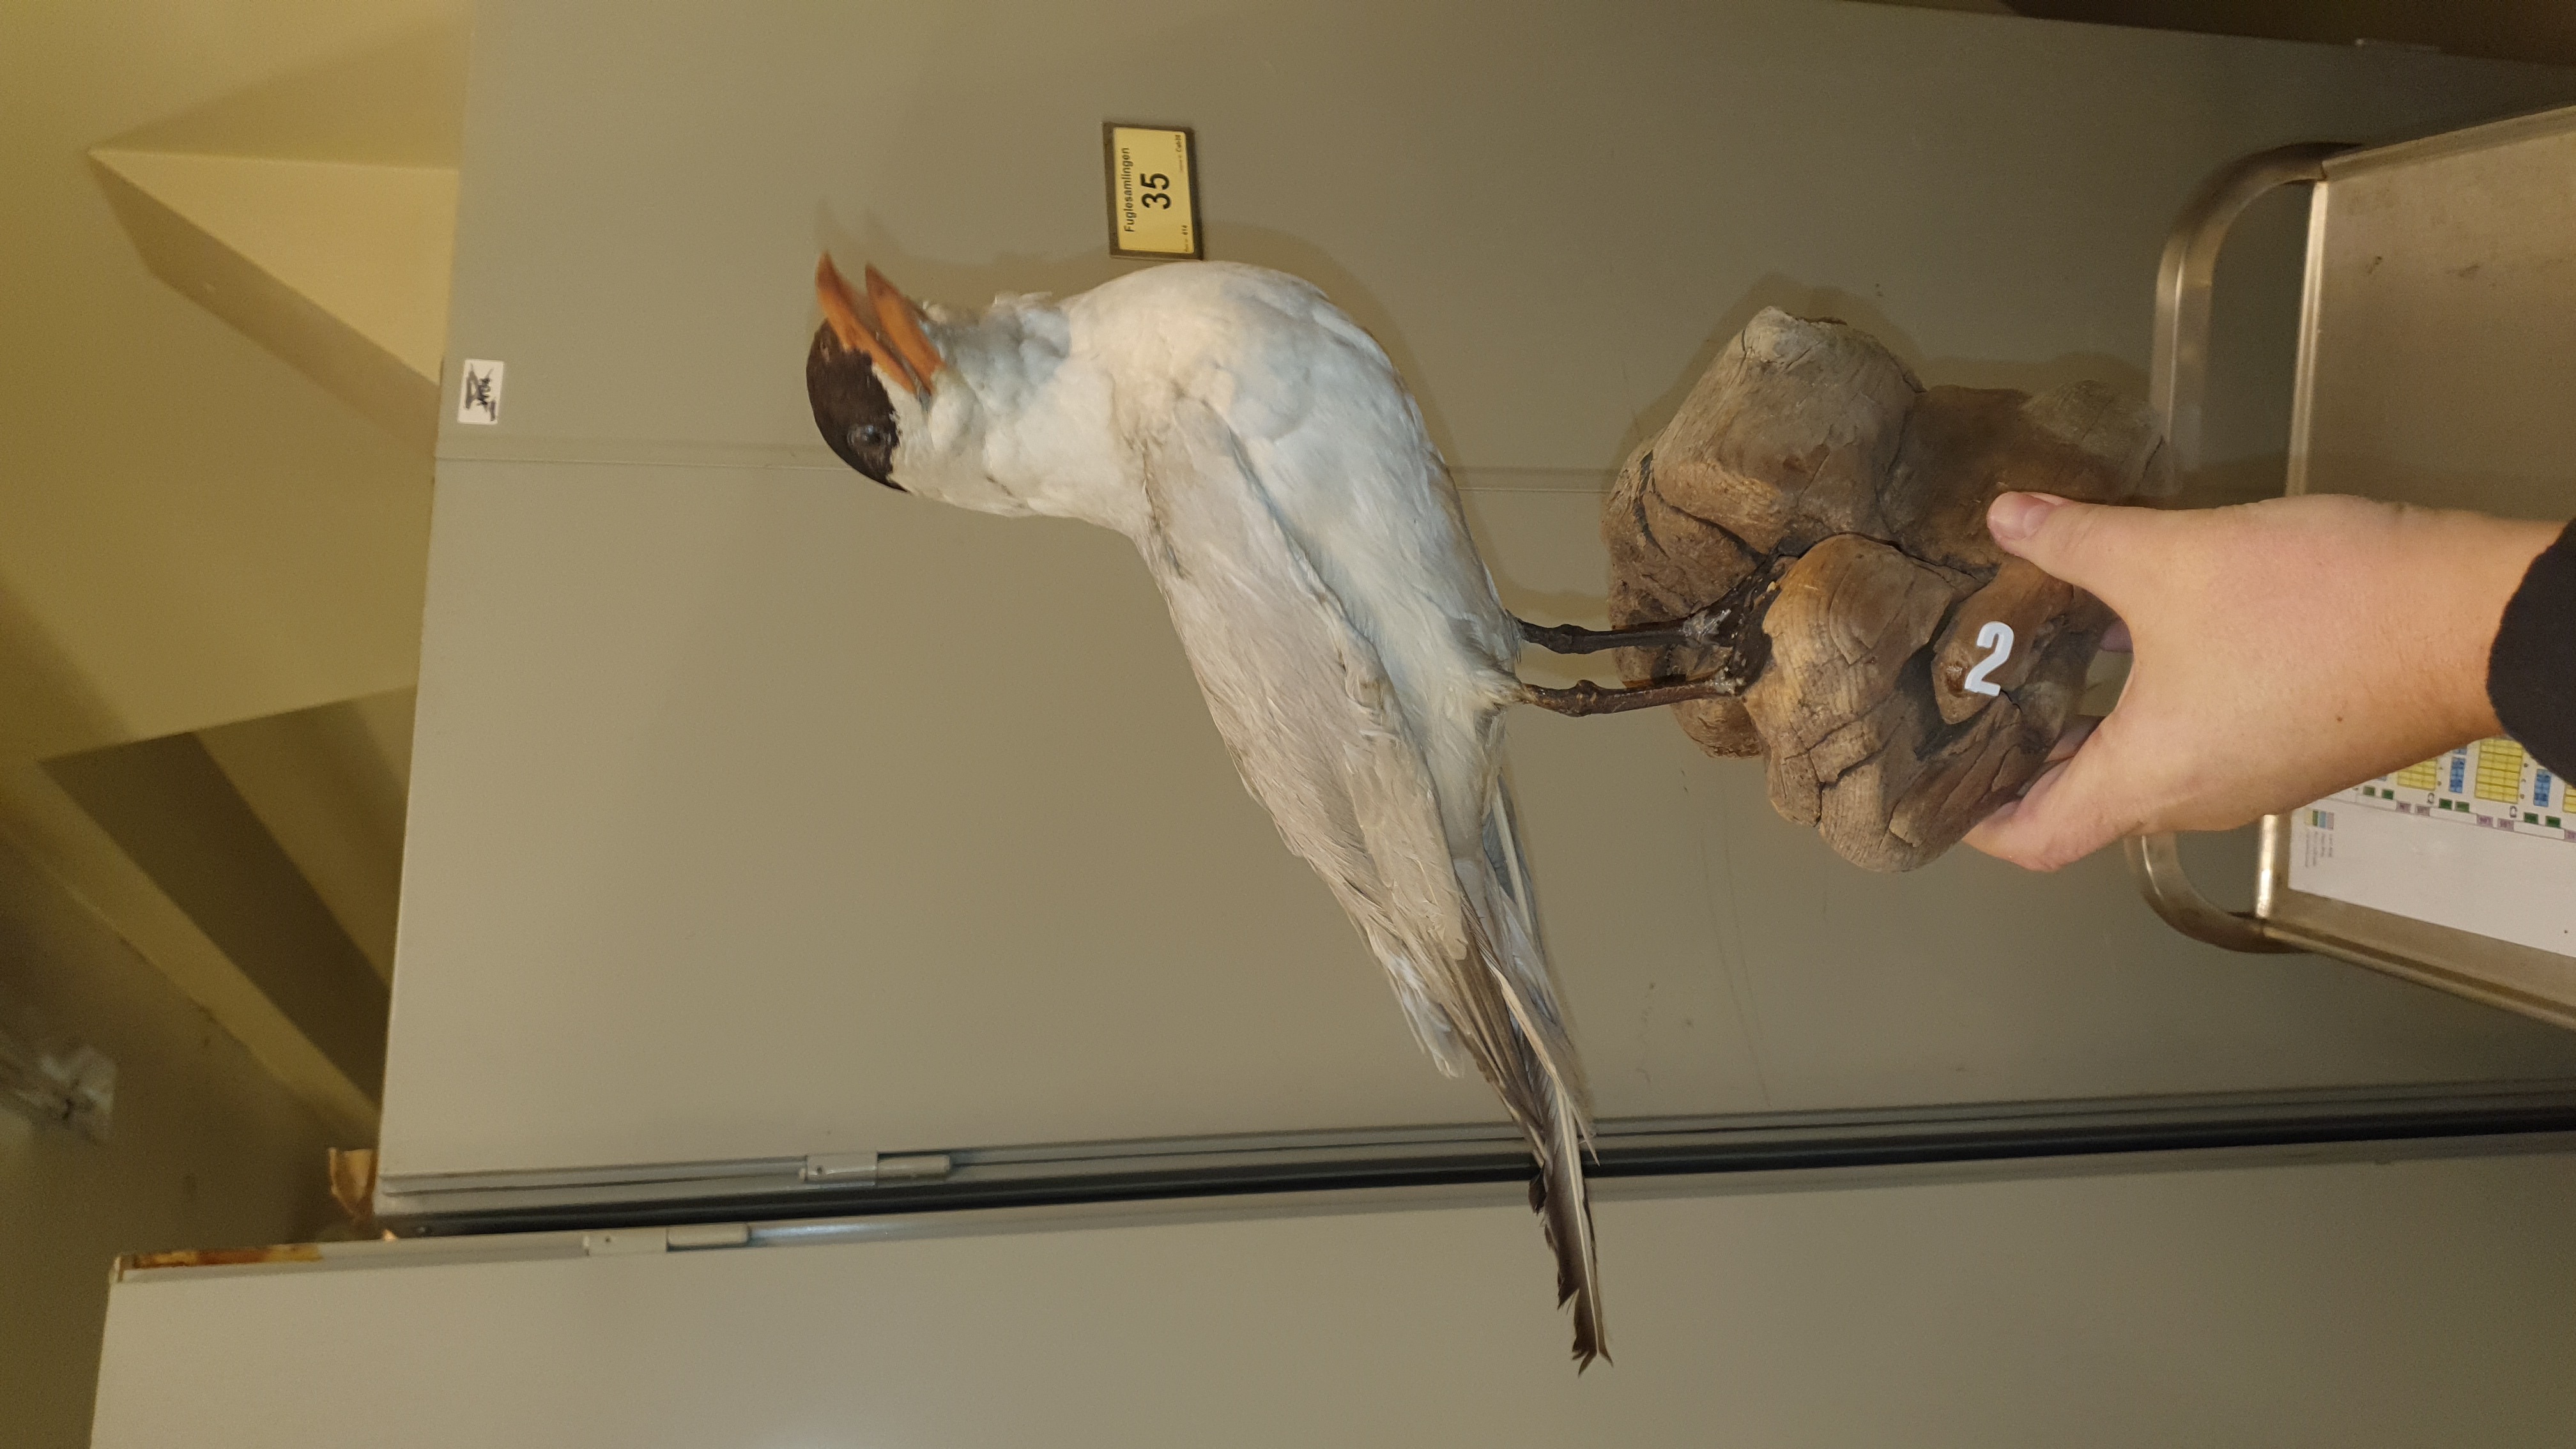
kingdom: Animalia
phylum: Chordata
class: Aves
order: Charadriiformes
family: Laridae
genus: Hydroprogne
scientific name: Hydroprogne caspia
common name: Caspian tern
